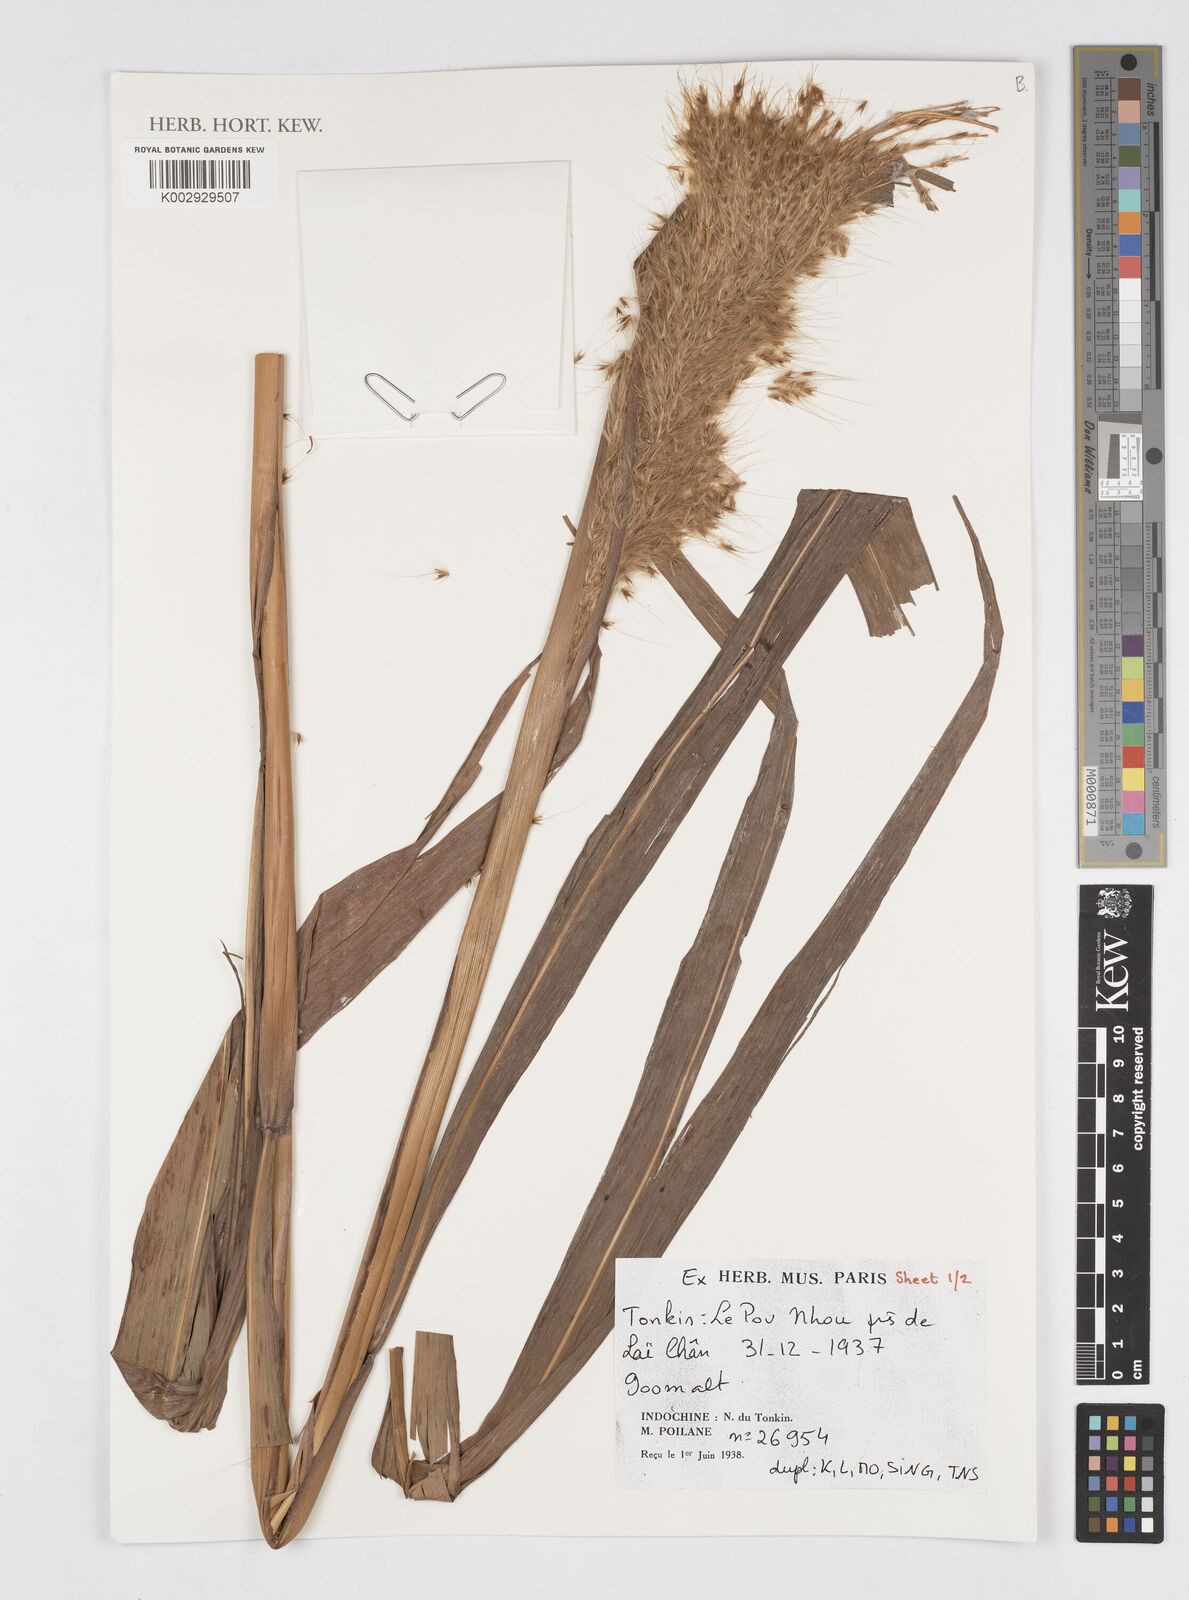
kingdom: Plantae
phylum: Tracheophyta
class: Liliopsida
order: Poales
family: Poaceae
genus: Saccharum
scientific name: Saccharum
